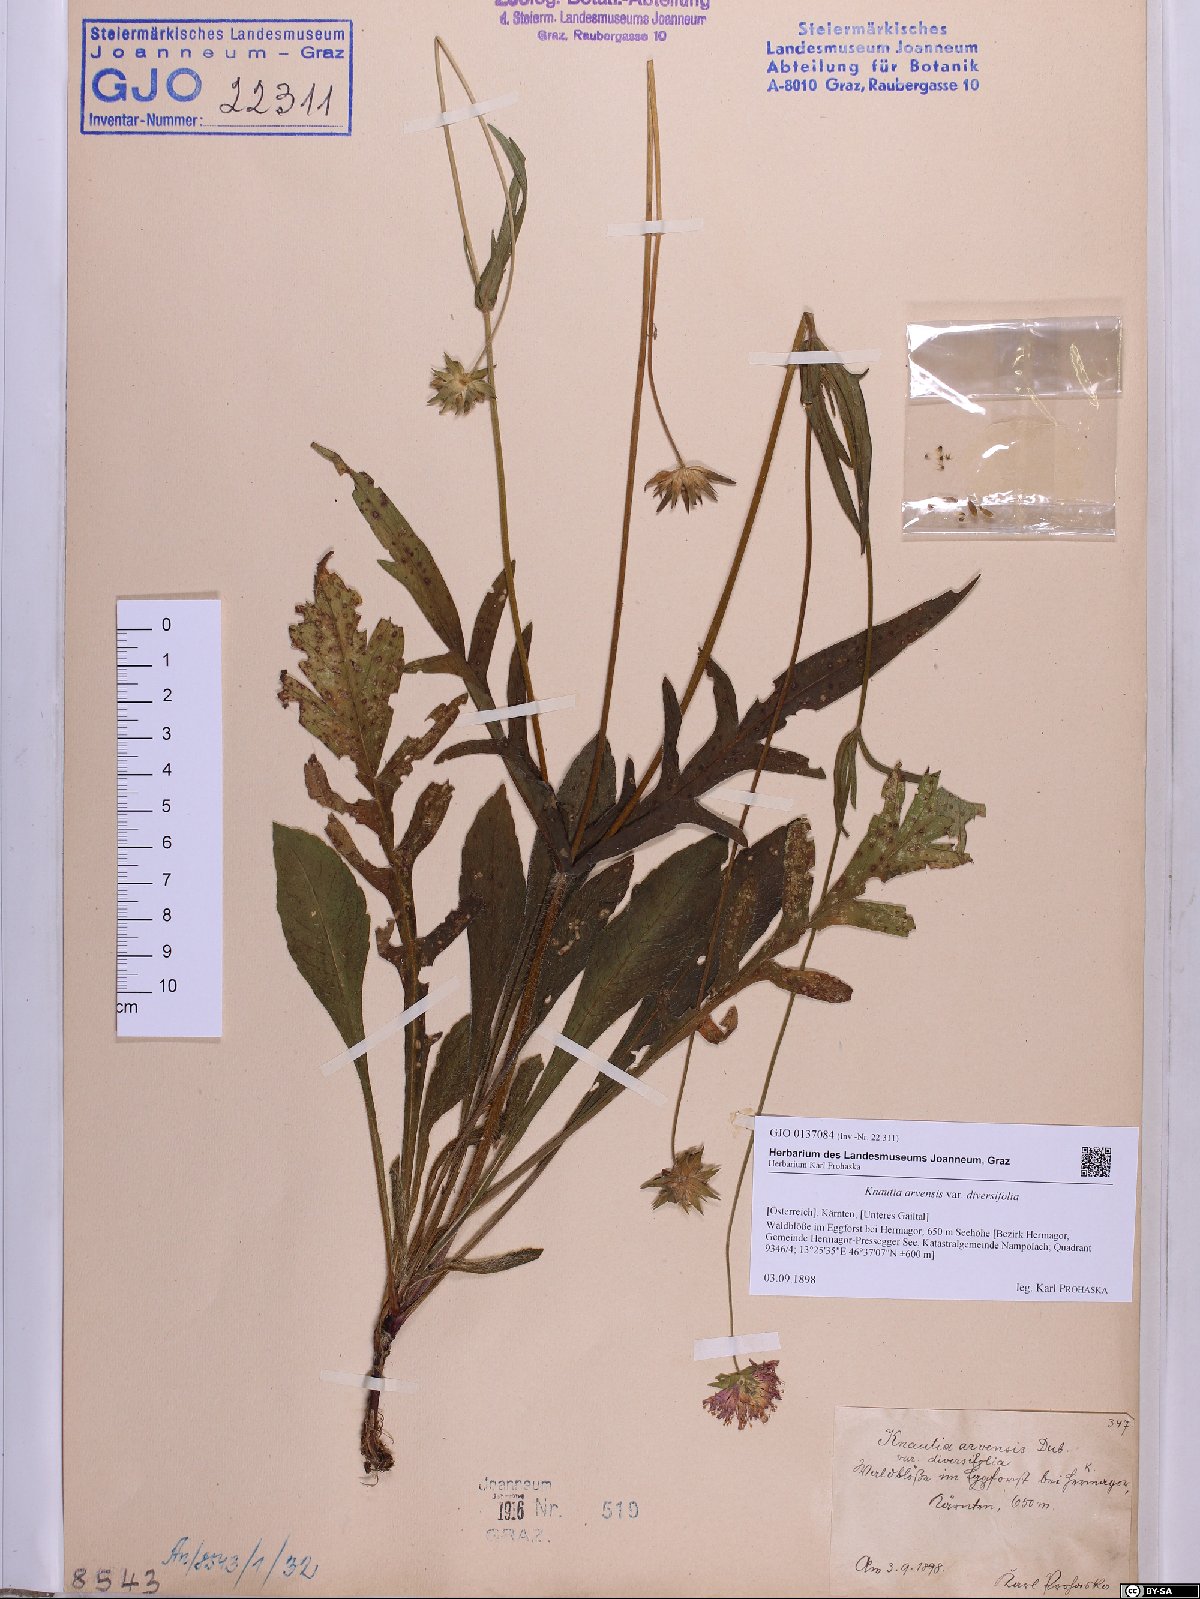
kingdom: Plantae
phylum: Tracheophyta
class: Magnoliopsida
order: Dipsacales
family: Caprifoliaceae
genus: Knautia
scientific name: Knautia arvensis
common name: Field scabiosa
